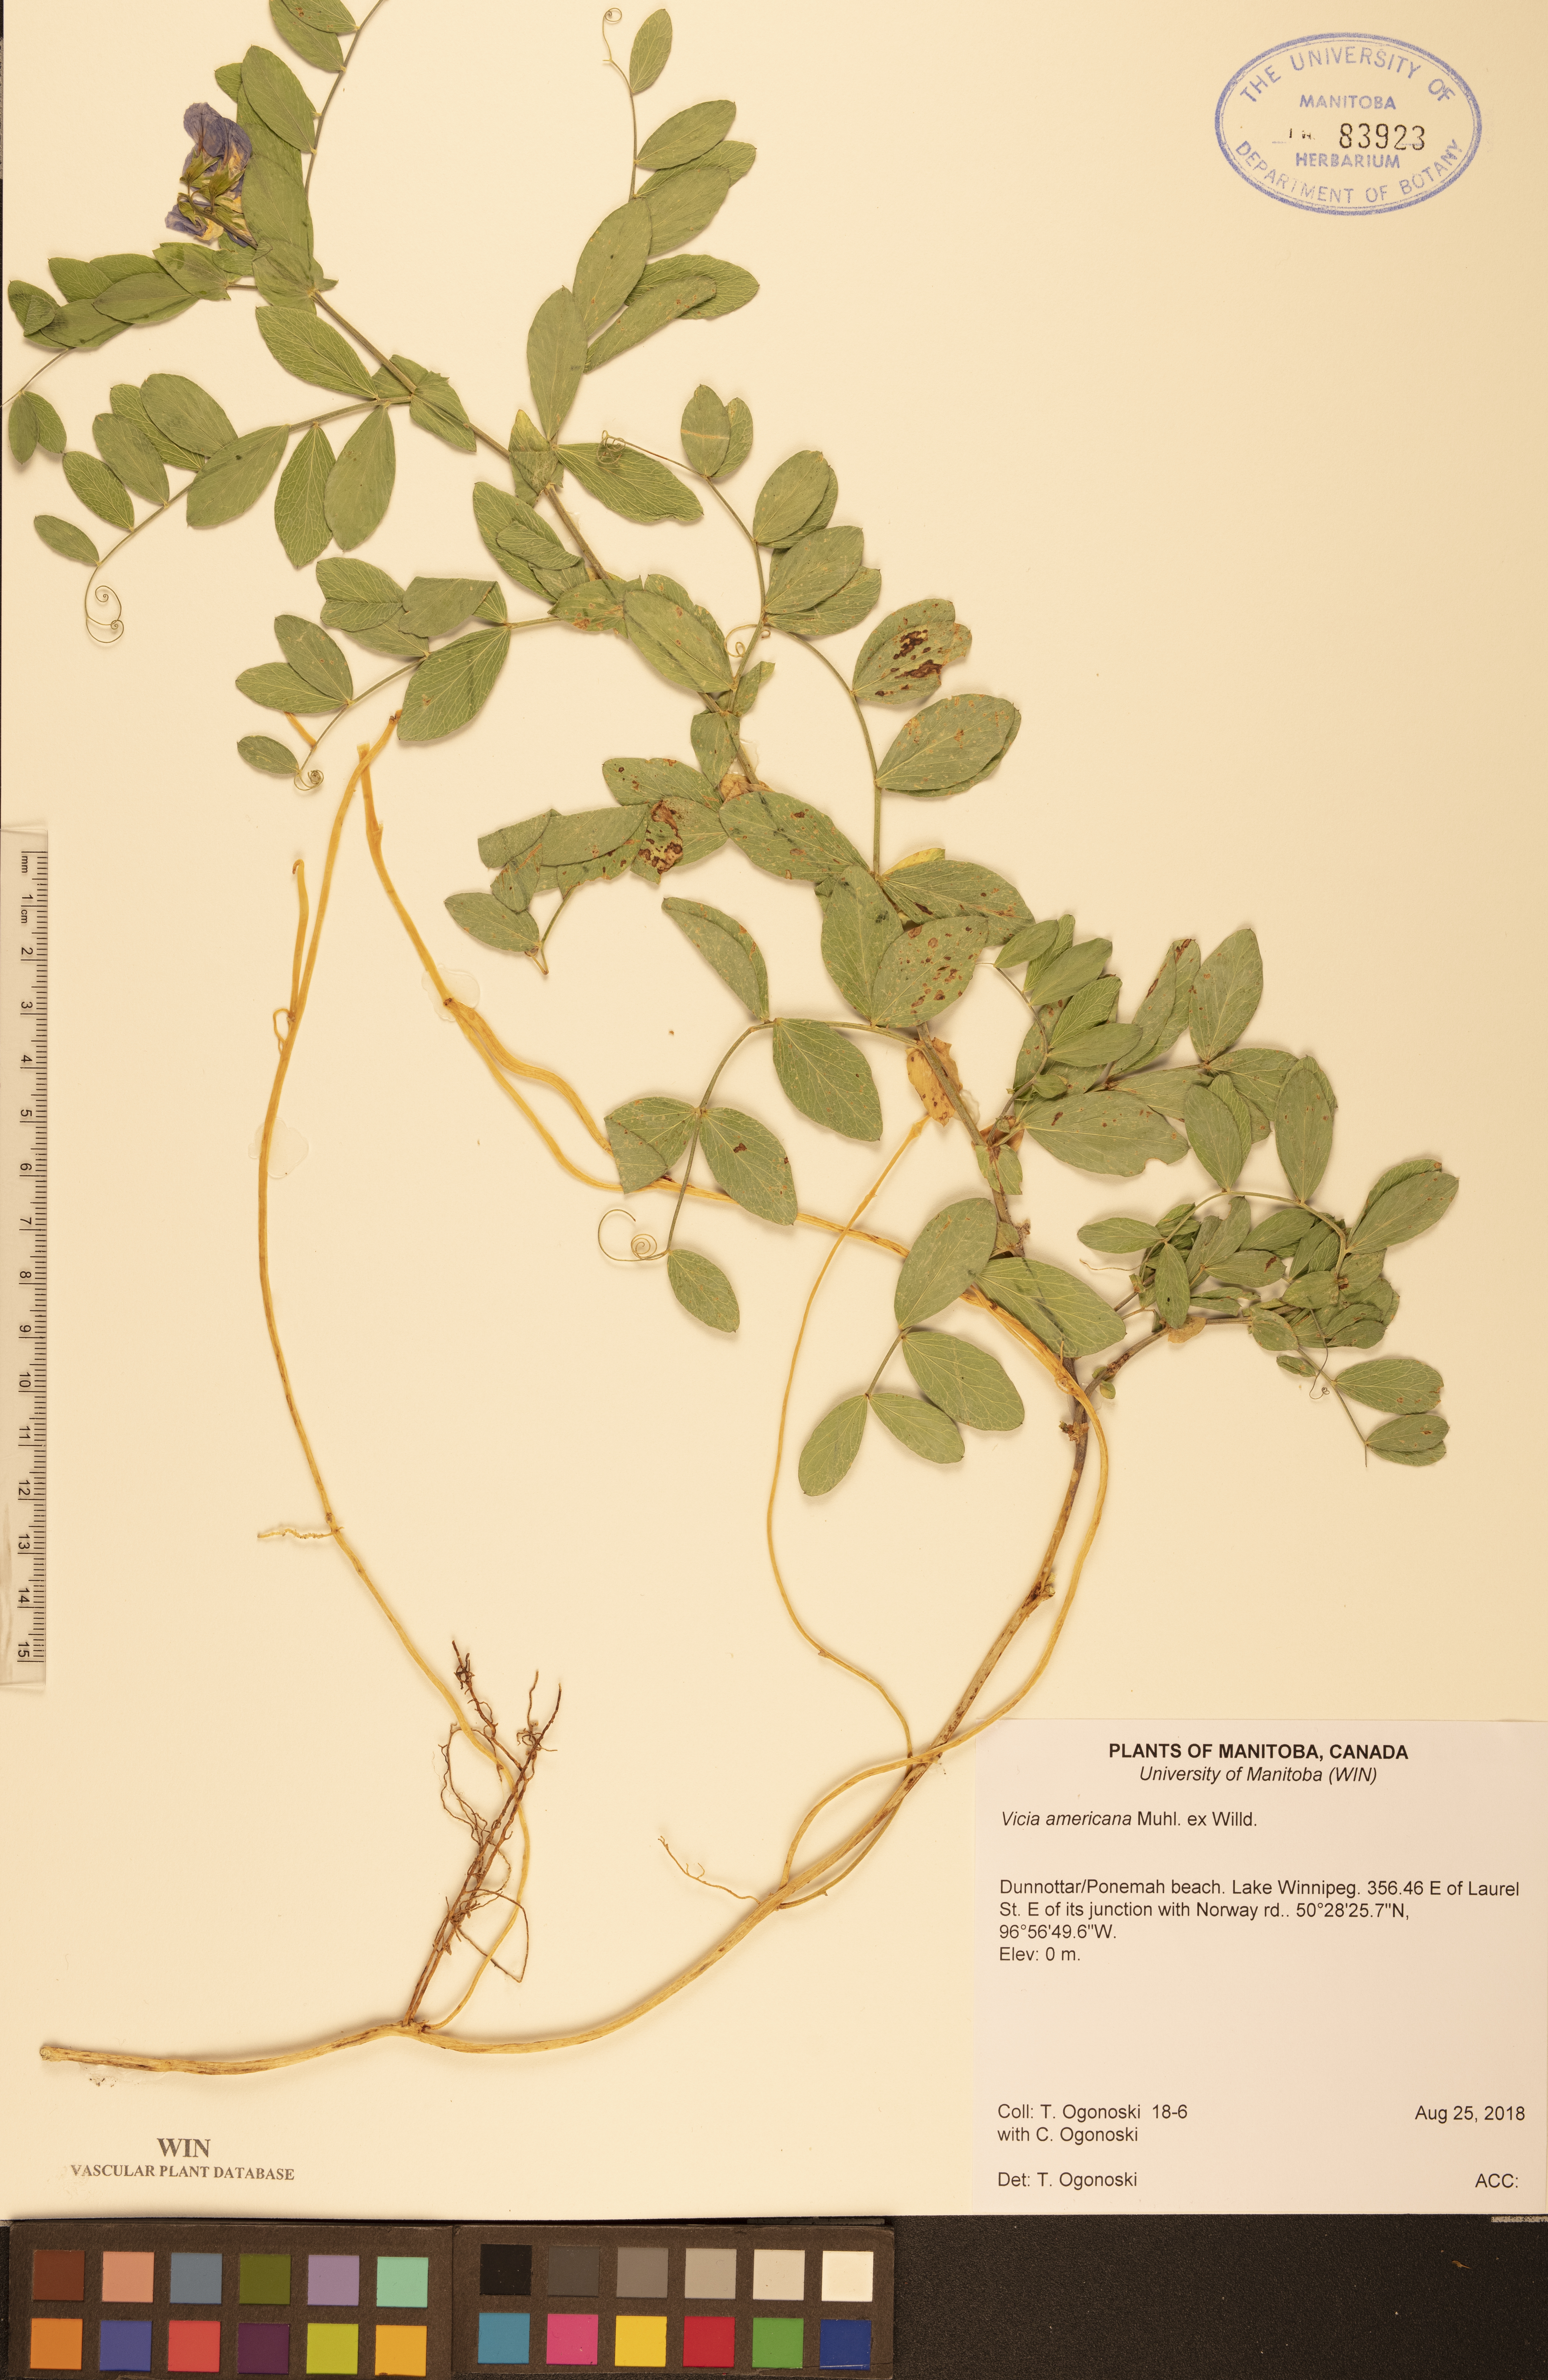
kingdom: Plantae
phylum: Tracheophyta
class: Magnoliopsida
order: Fabales
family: Fabaceae
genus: Vicia
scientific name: Vicia americana
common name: American vetch
